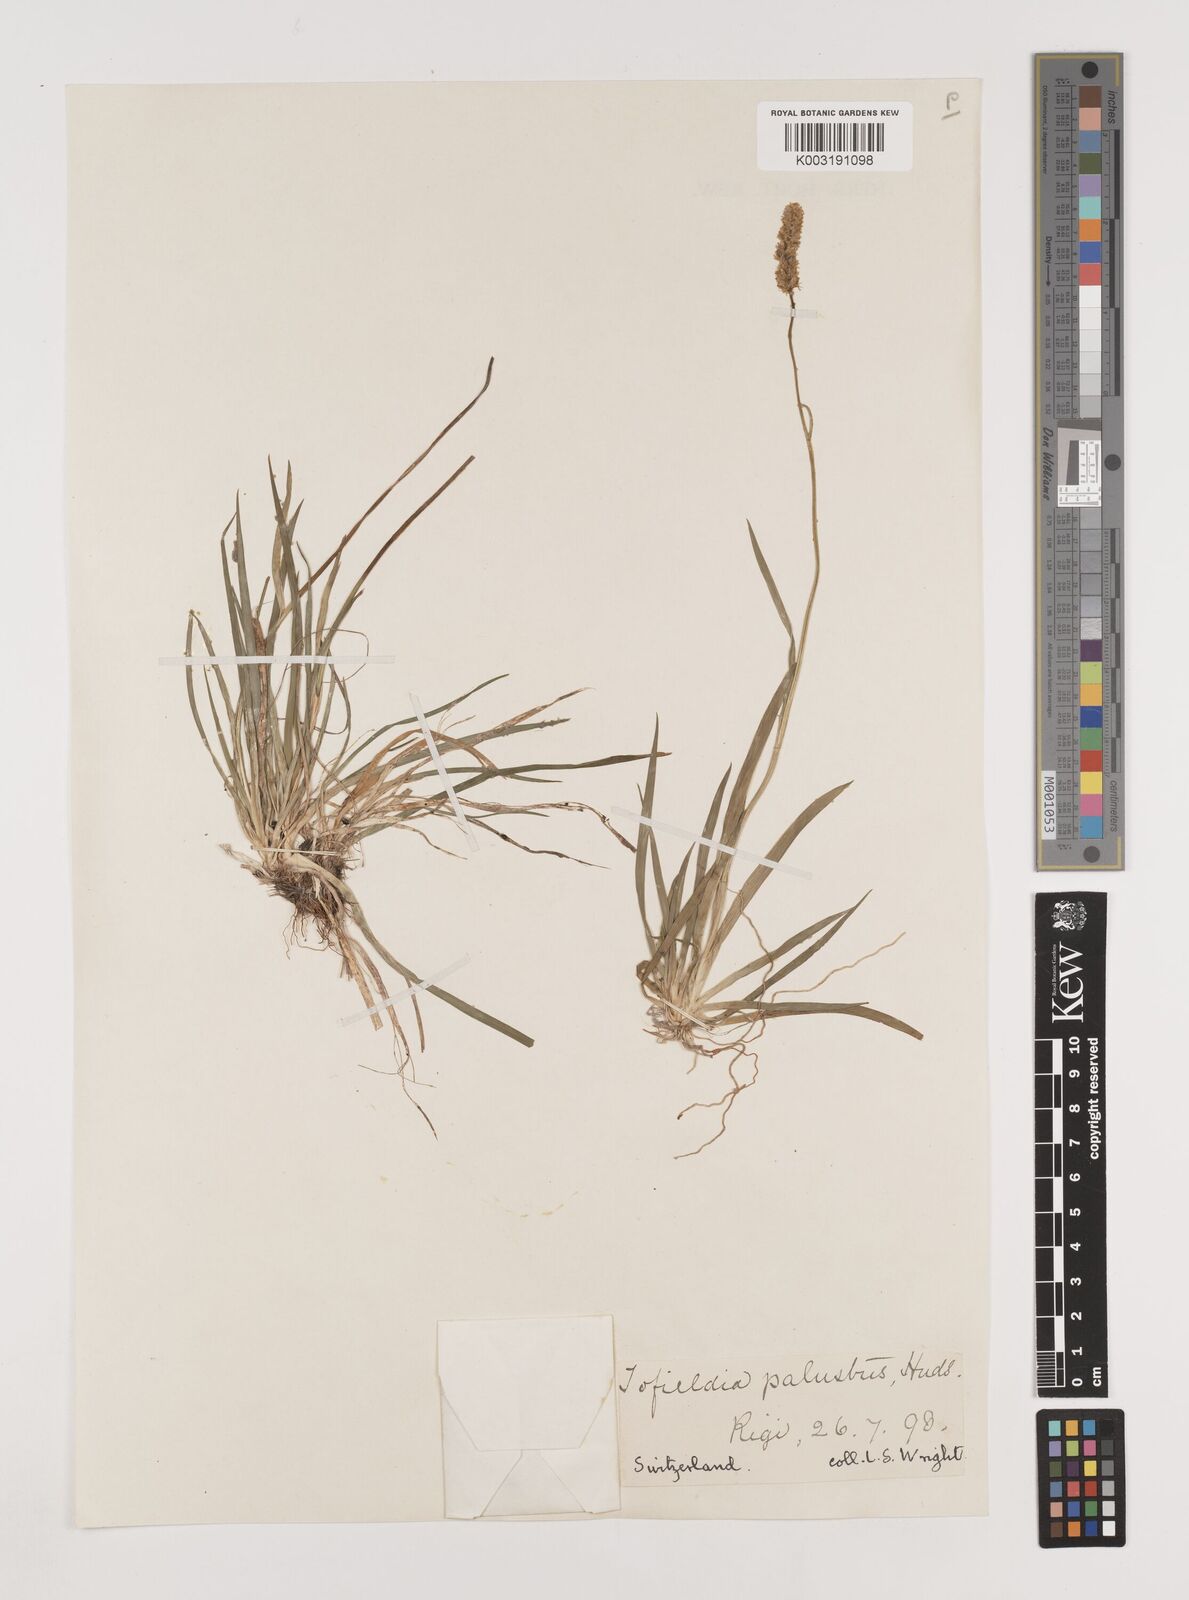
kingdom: Plantae
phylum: Tracheophyta
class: Liliopsida
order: Alismatales
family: Tofieldiaceae
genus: Tofieldia
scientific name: Tofieldia pusilla
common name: Scottish false asphodel
